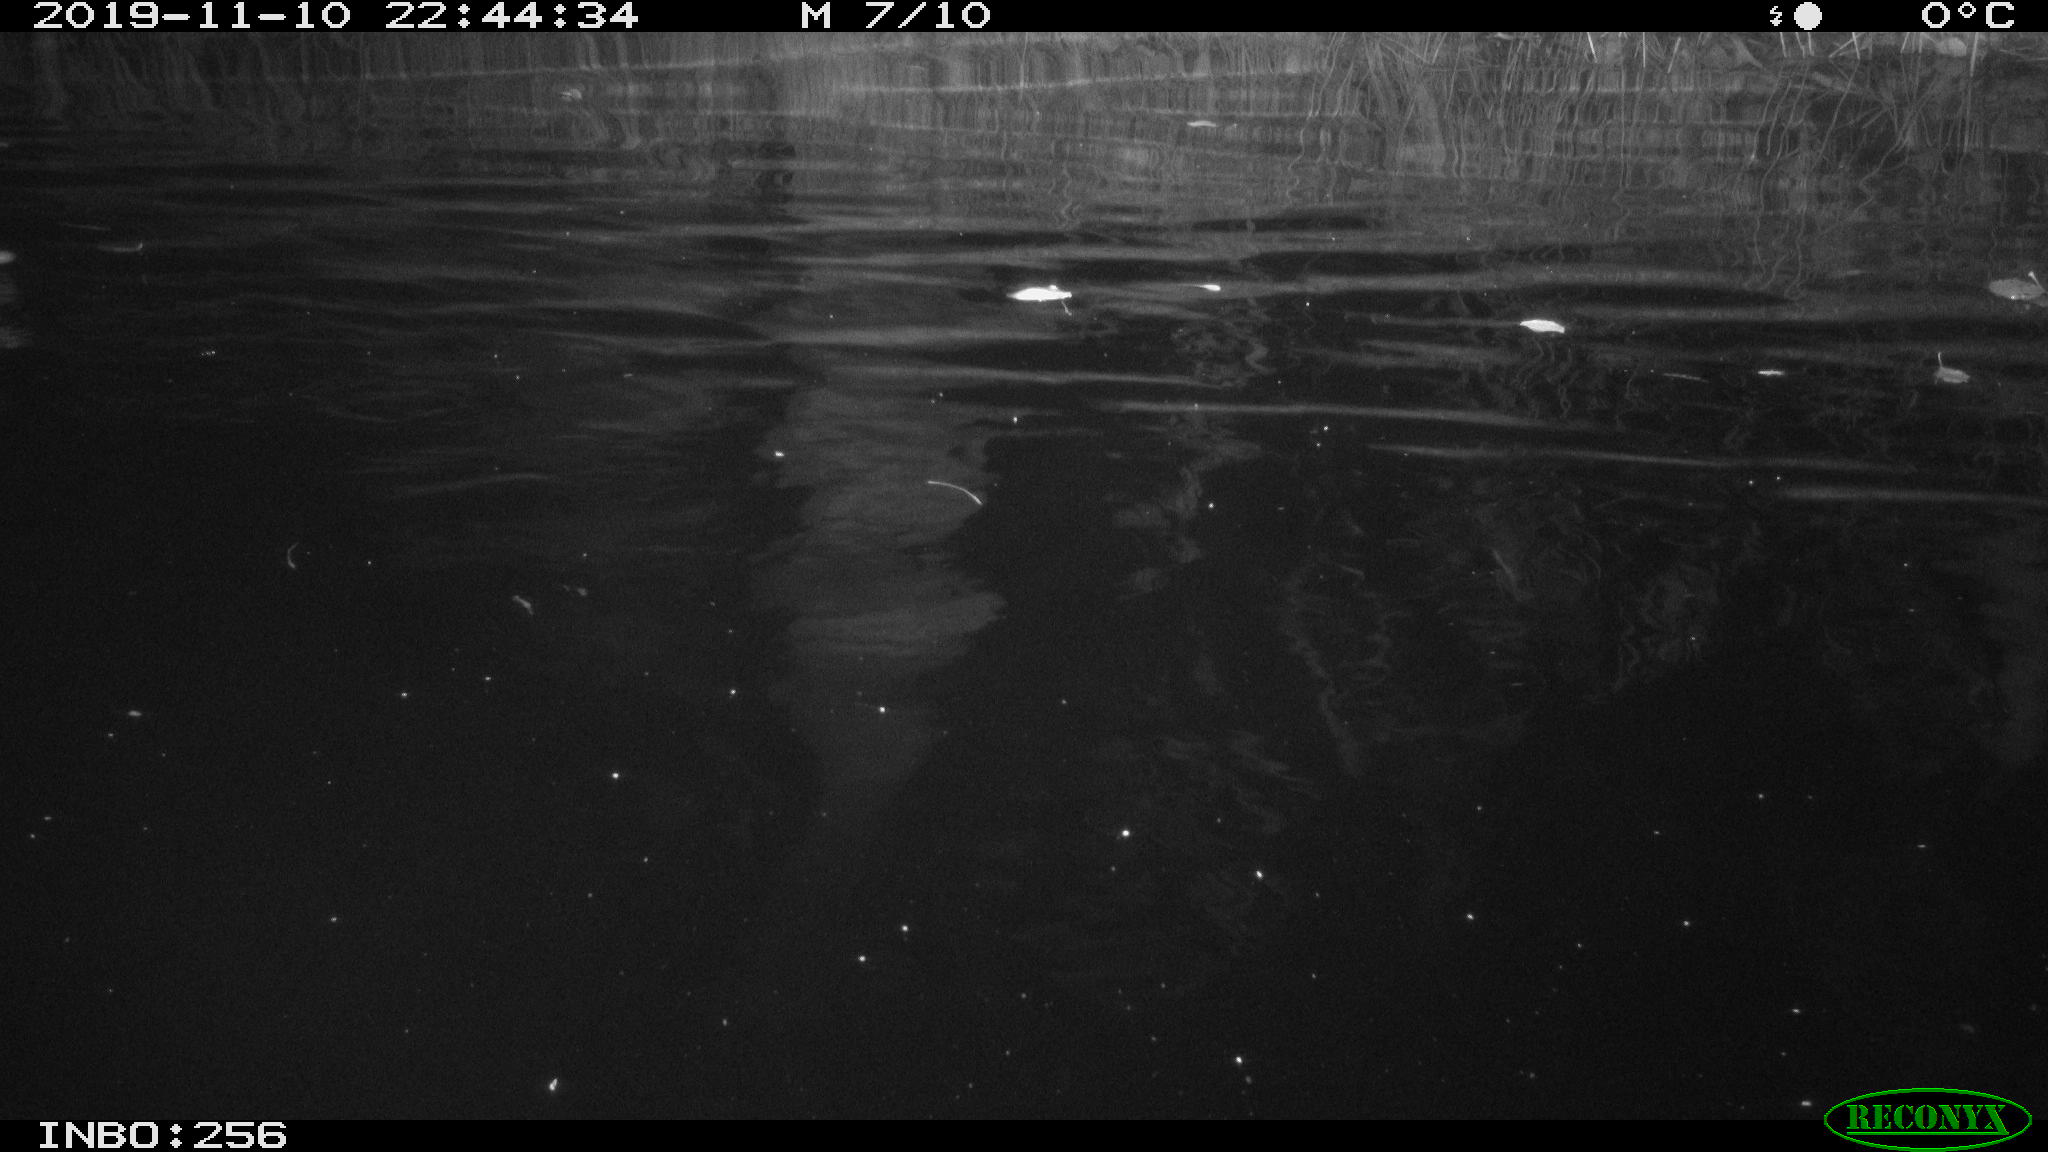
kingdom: Animalia
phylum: Chordata
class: Aves
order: Anseriformes
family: Anatidae
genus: Anas
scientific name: Anas platyrhynchos
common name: Mallard
